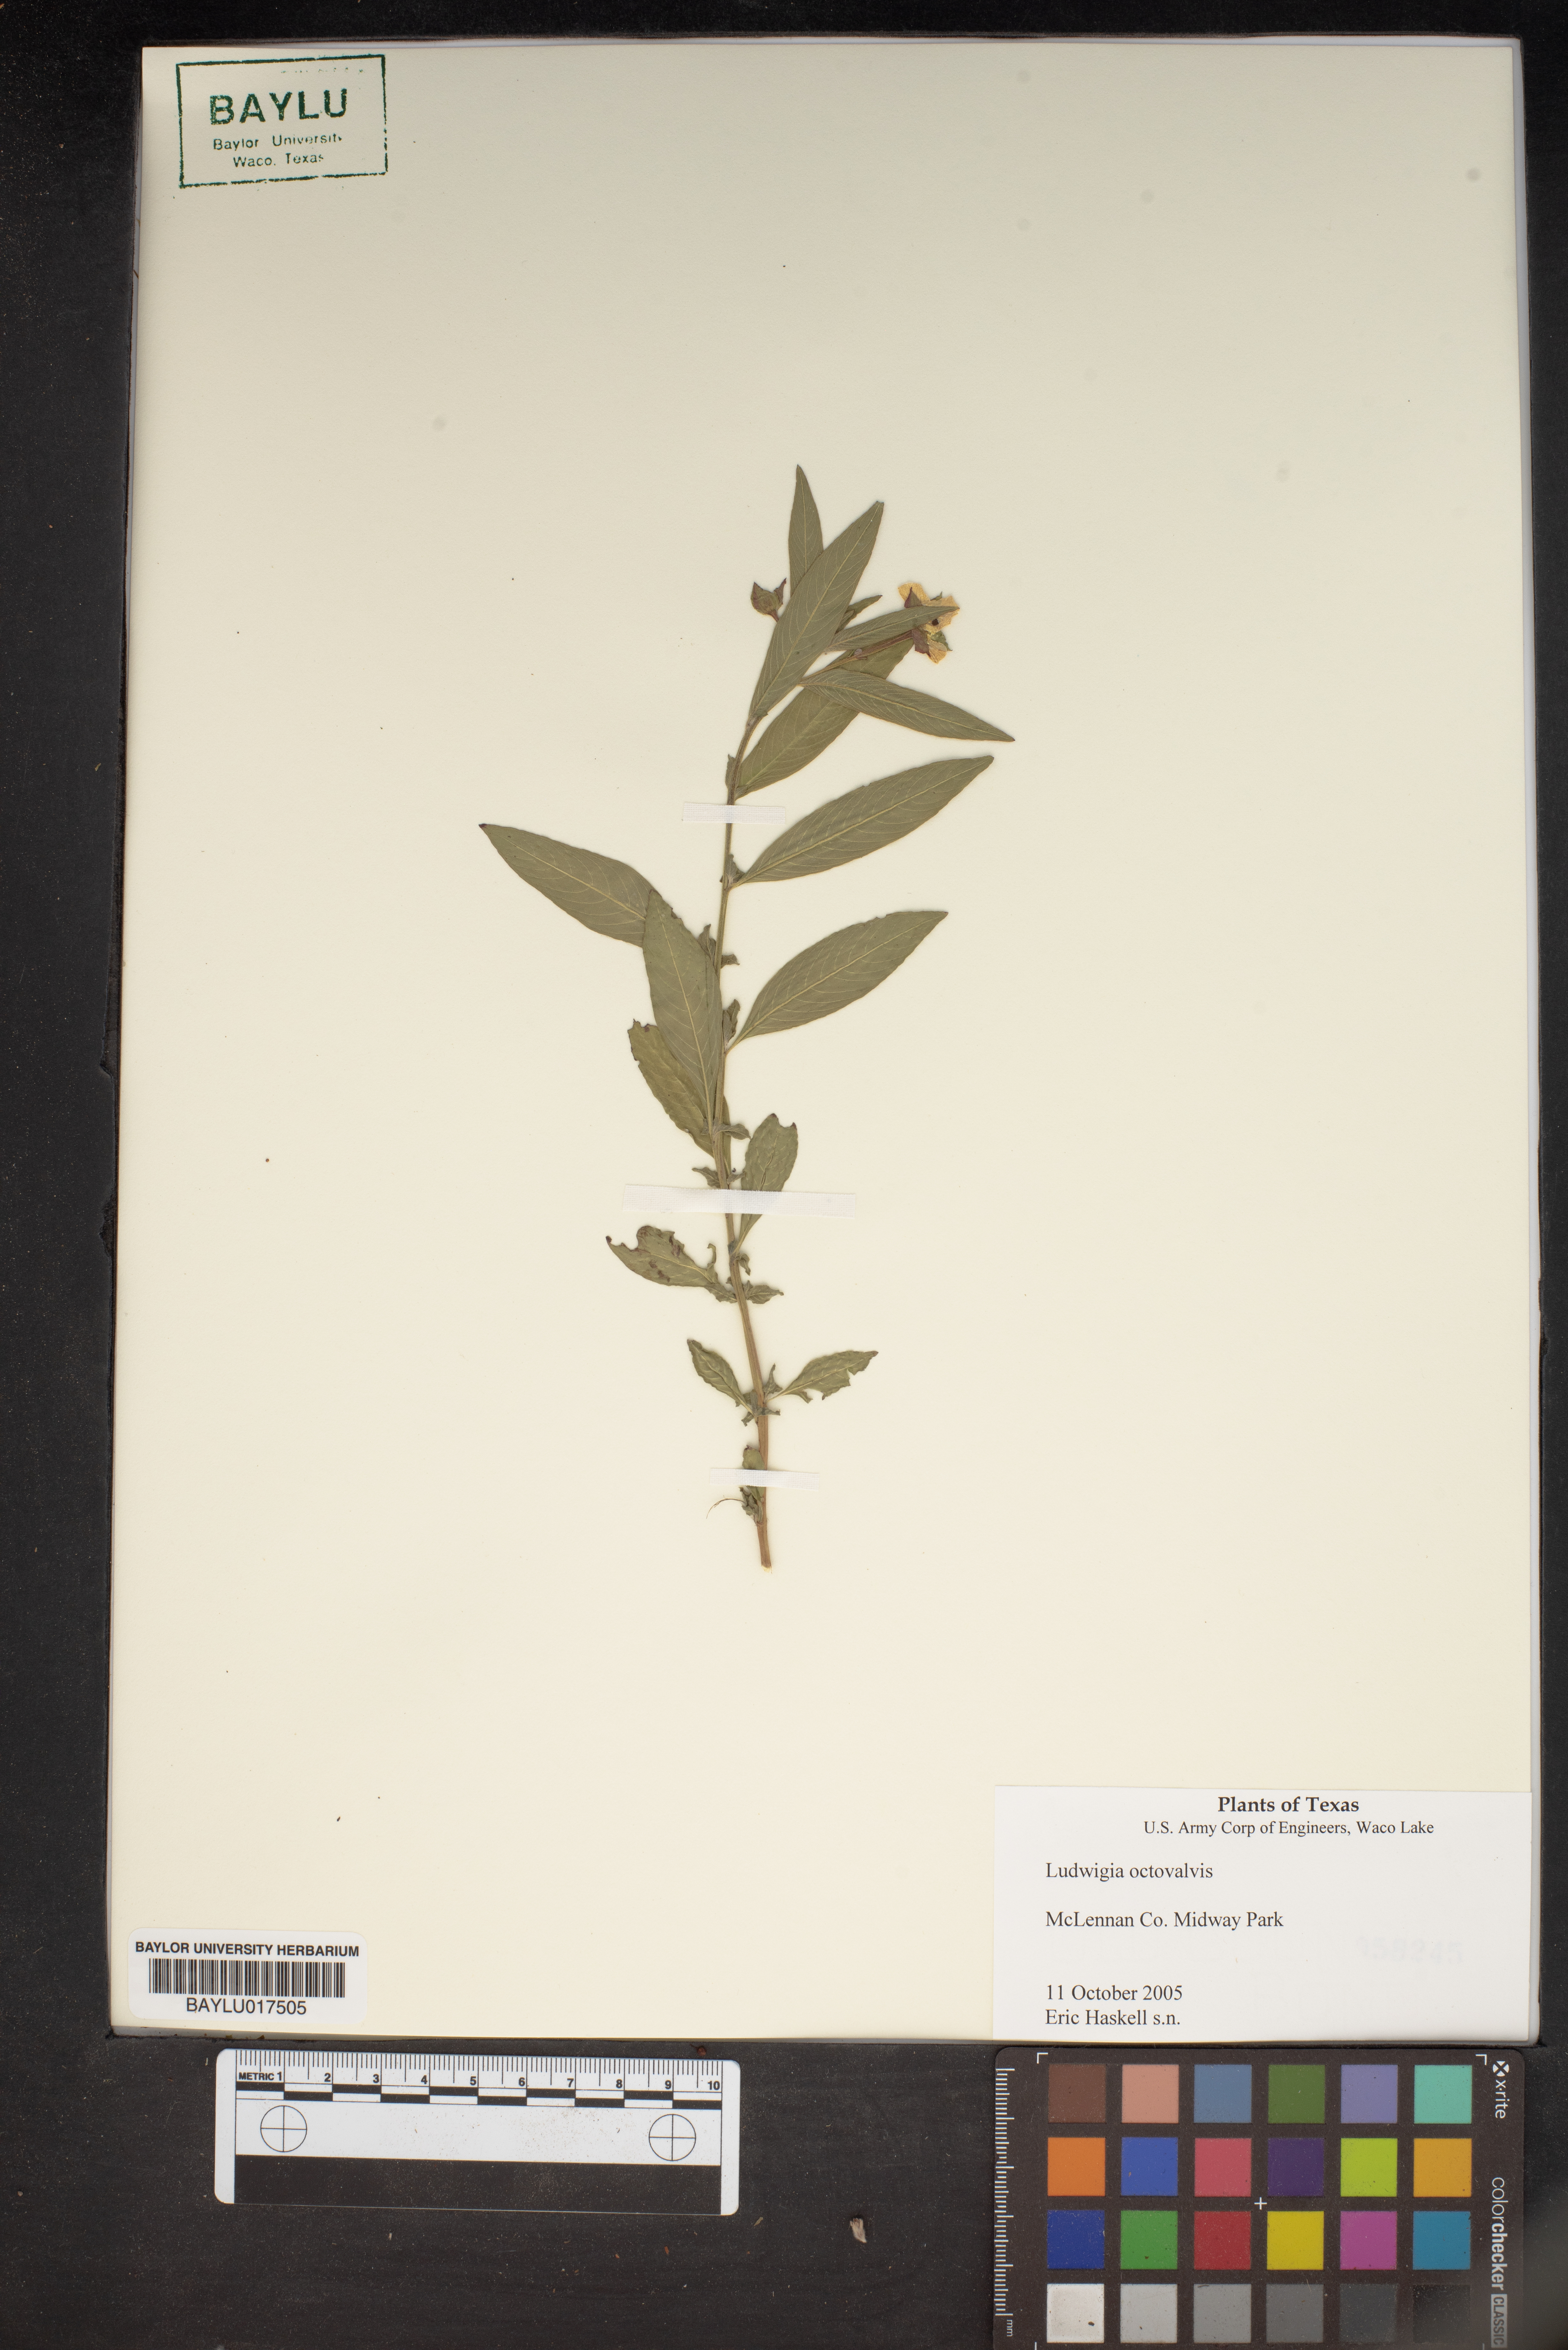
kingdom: Plantae
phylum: Tracheophyta
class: Magnoliopsida
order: Myrtales
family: Onagraceae
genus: Ludwigia
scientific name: Ludwigia octovalvis
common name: Water-primrose
